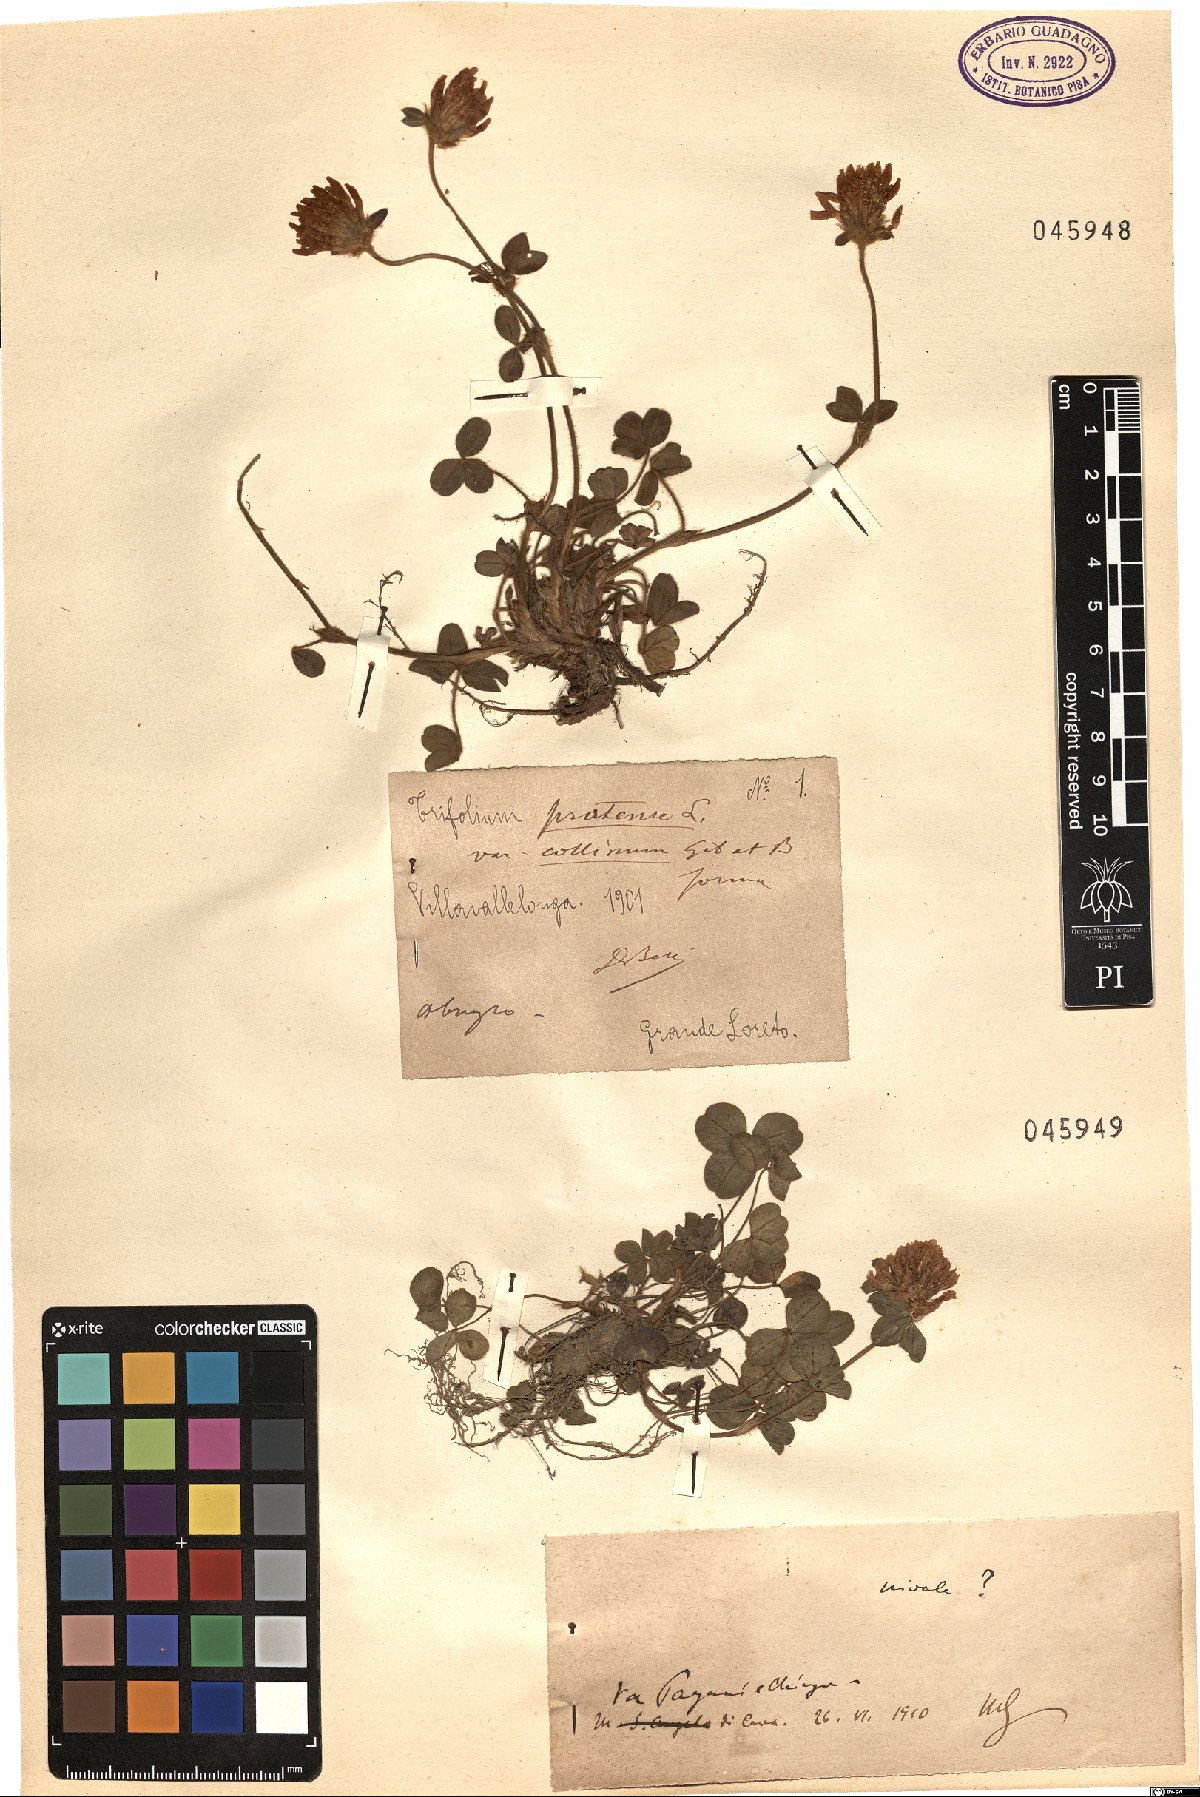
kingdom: Plantae
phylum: Tracheophyta
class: Magnoliopsida
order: Fabales
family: Fabaceae
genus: Trifolium
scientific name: Trifolium pratense
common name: Red clover
